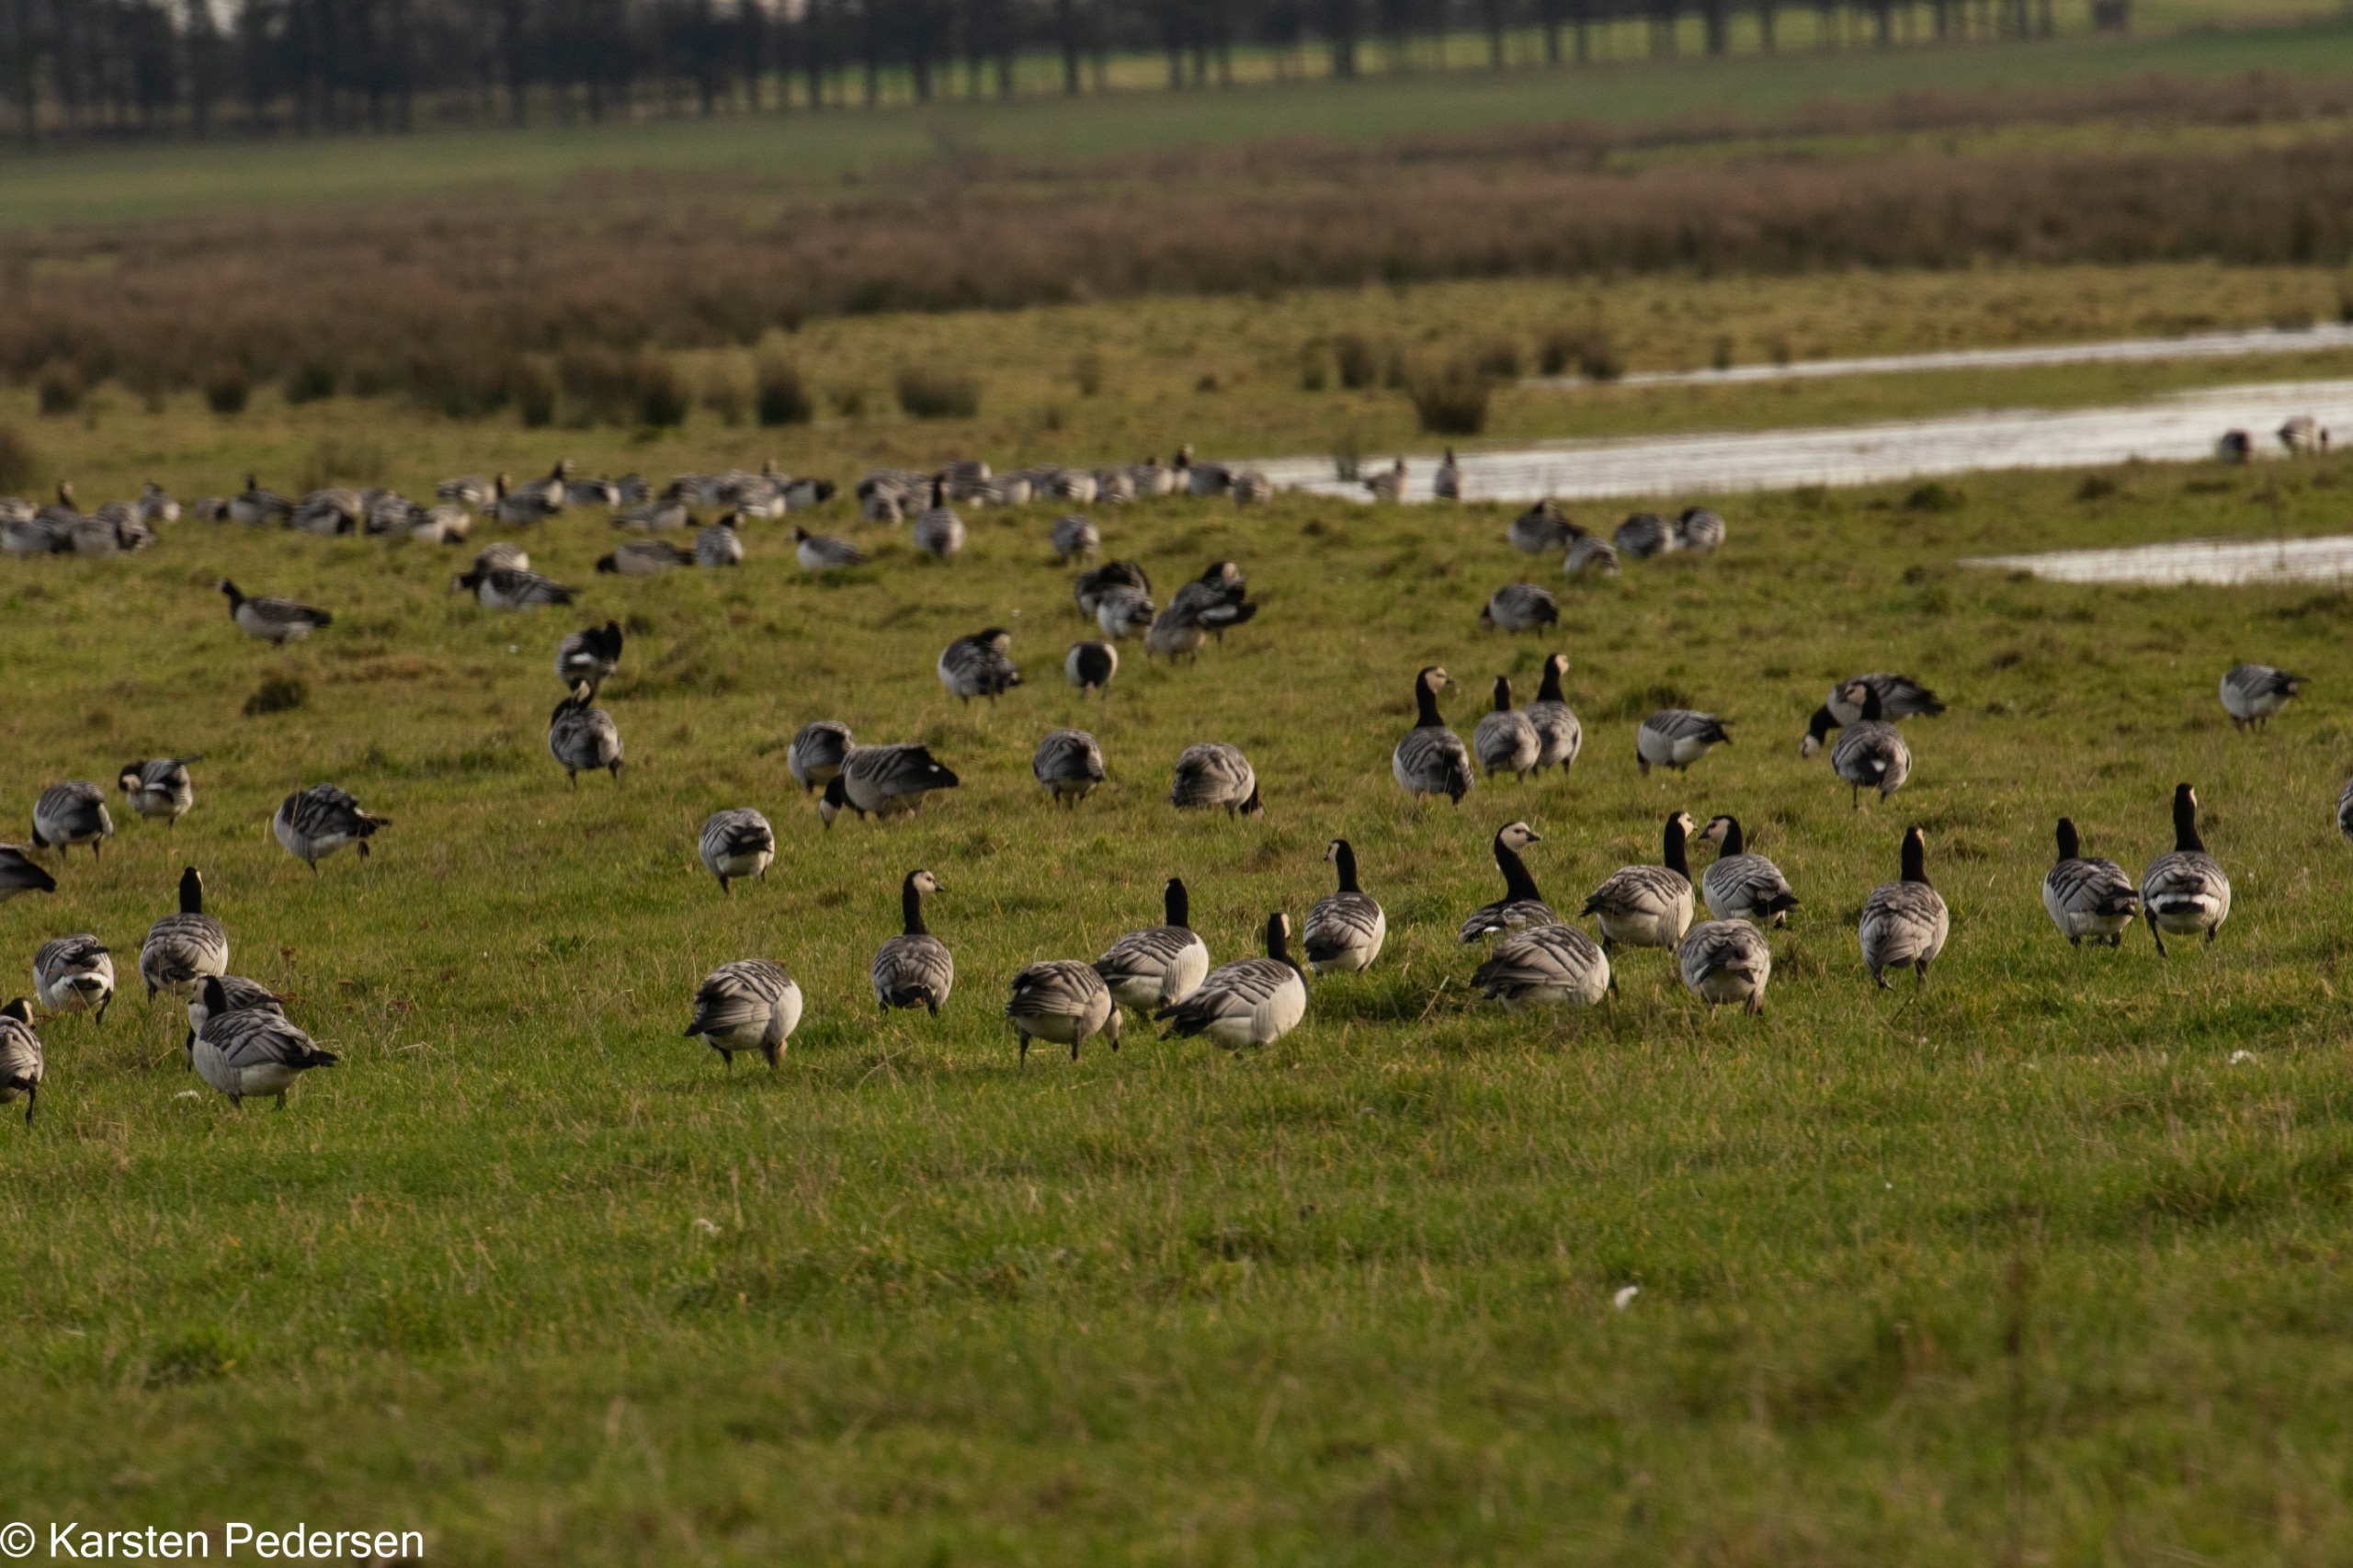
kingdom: Animalia
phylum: Chordata
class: Aves
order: Anseriformes
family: Anatidae
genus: Branta
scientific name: Branta leucopsis
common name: Bramgås
